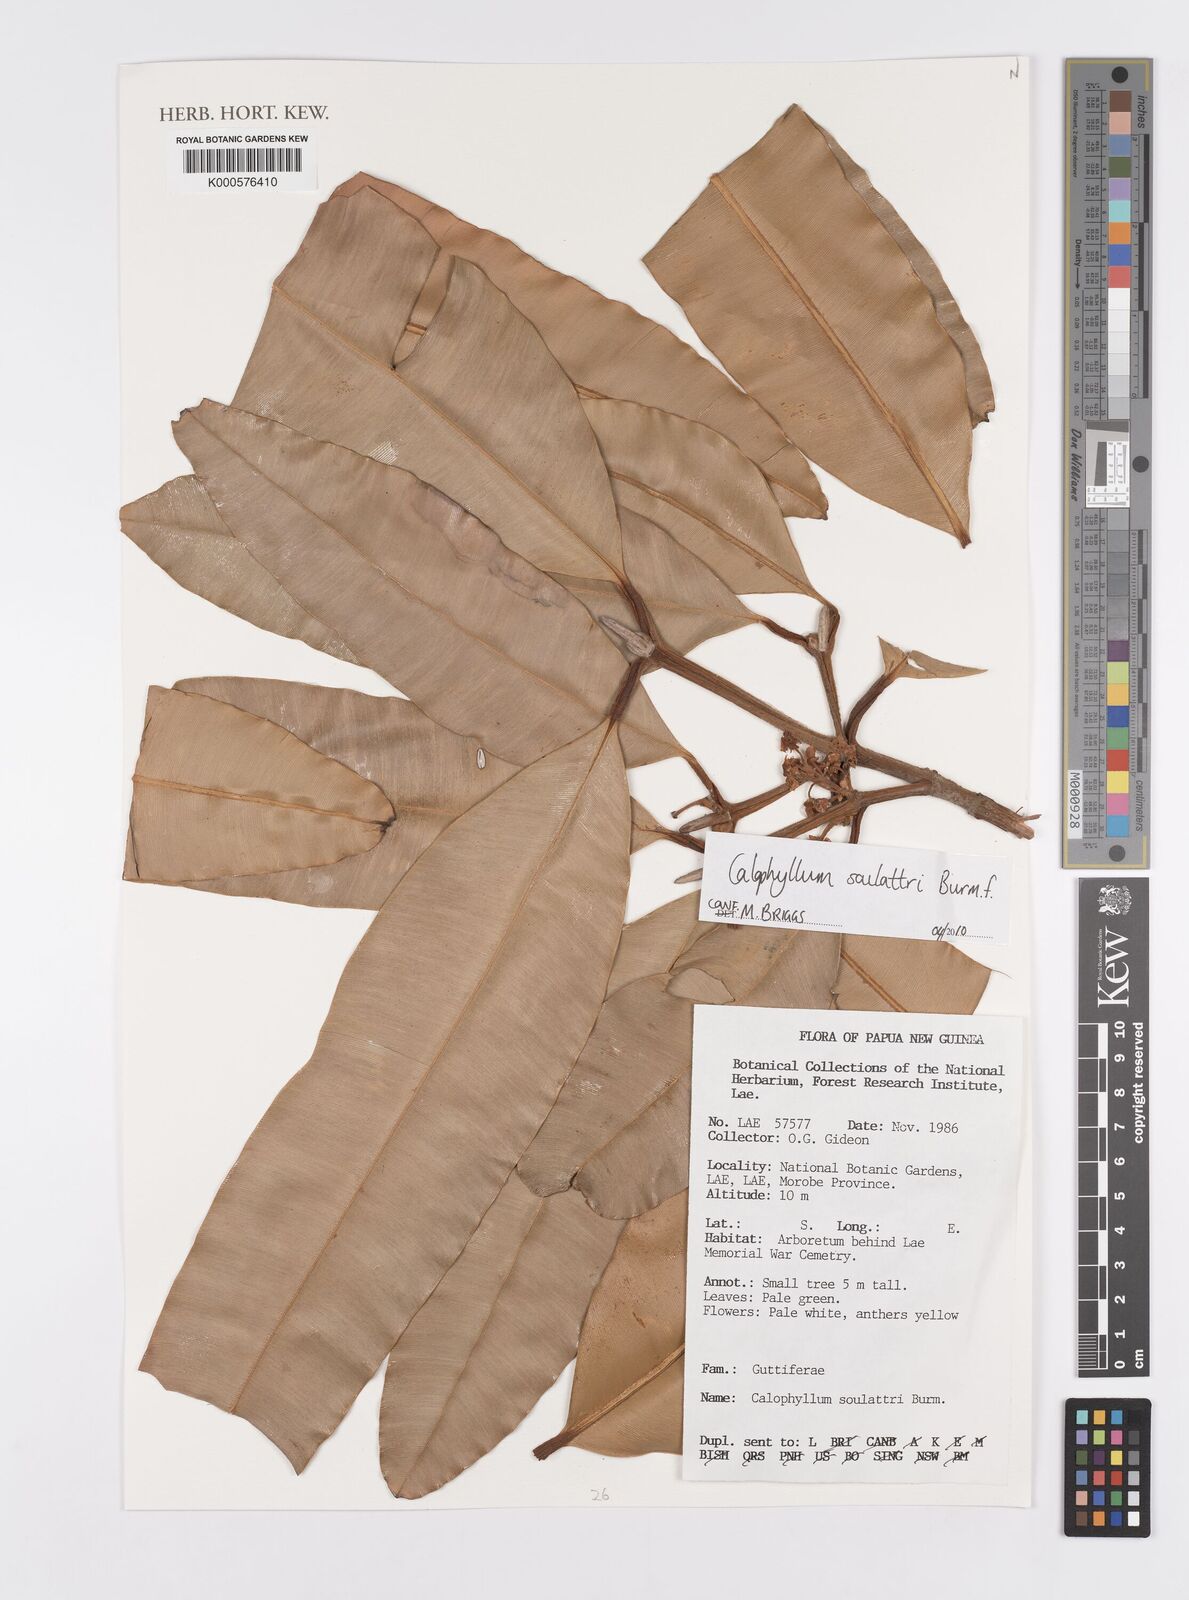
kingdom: Plantae
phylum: Tracheophyta
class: Magnoliopsida
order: Malpighiales
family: Calophyllaceae
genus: Calophyllum
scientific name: Calophyllum robustum
